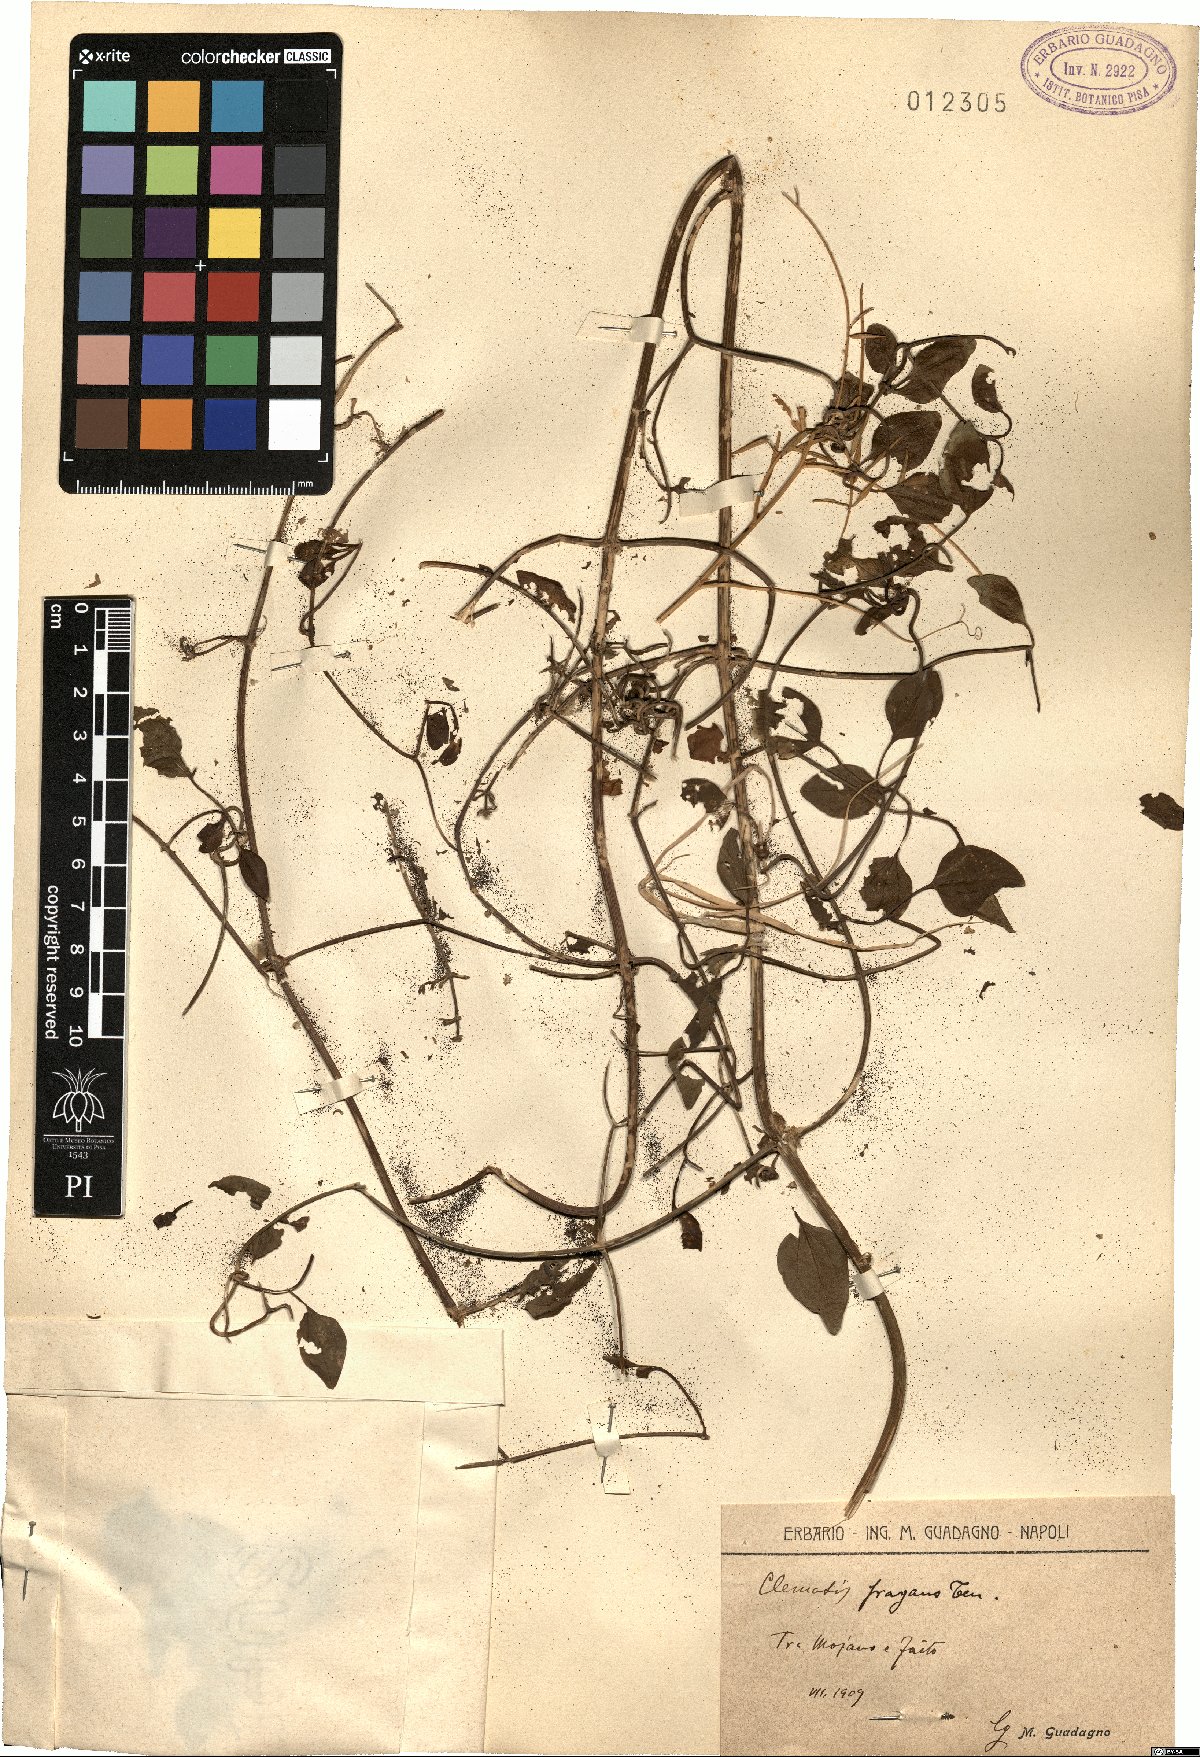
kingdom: Plantae
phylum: Tracheophyta
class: Magnoliopsida
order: Ranunculales
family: Ranunculaceae
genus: Clematis
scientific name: Clematis flammula
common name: Virgin's-bower
